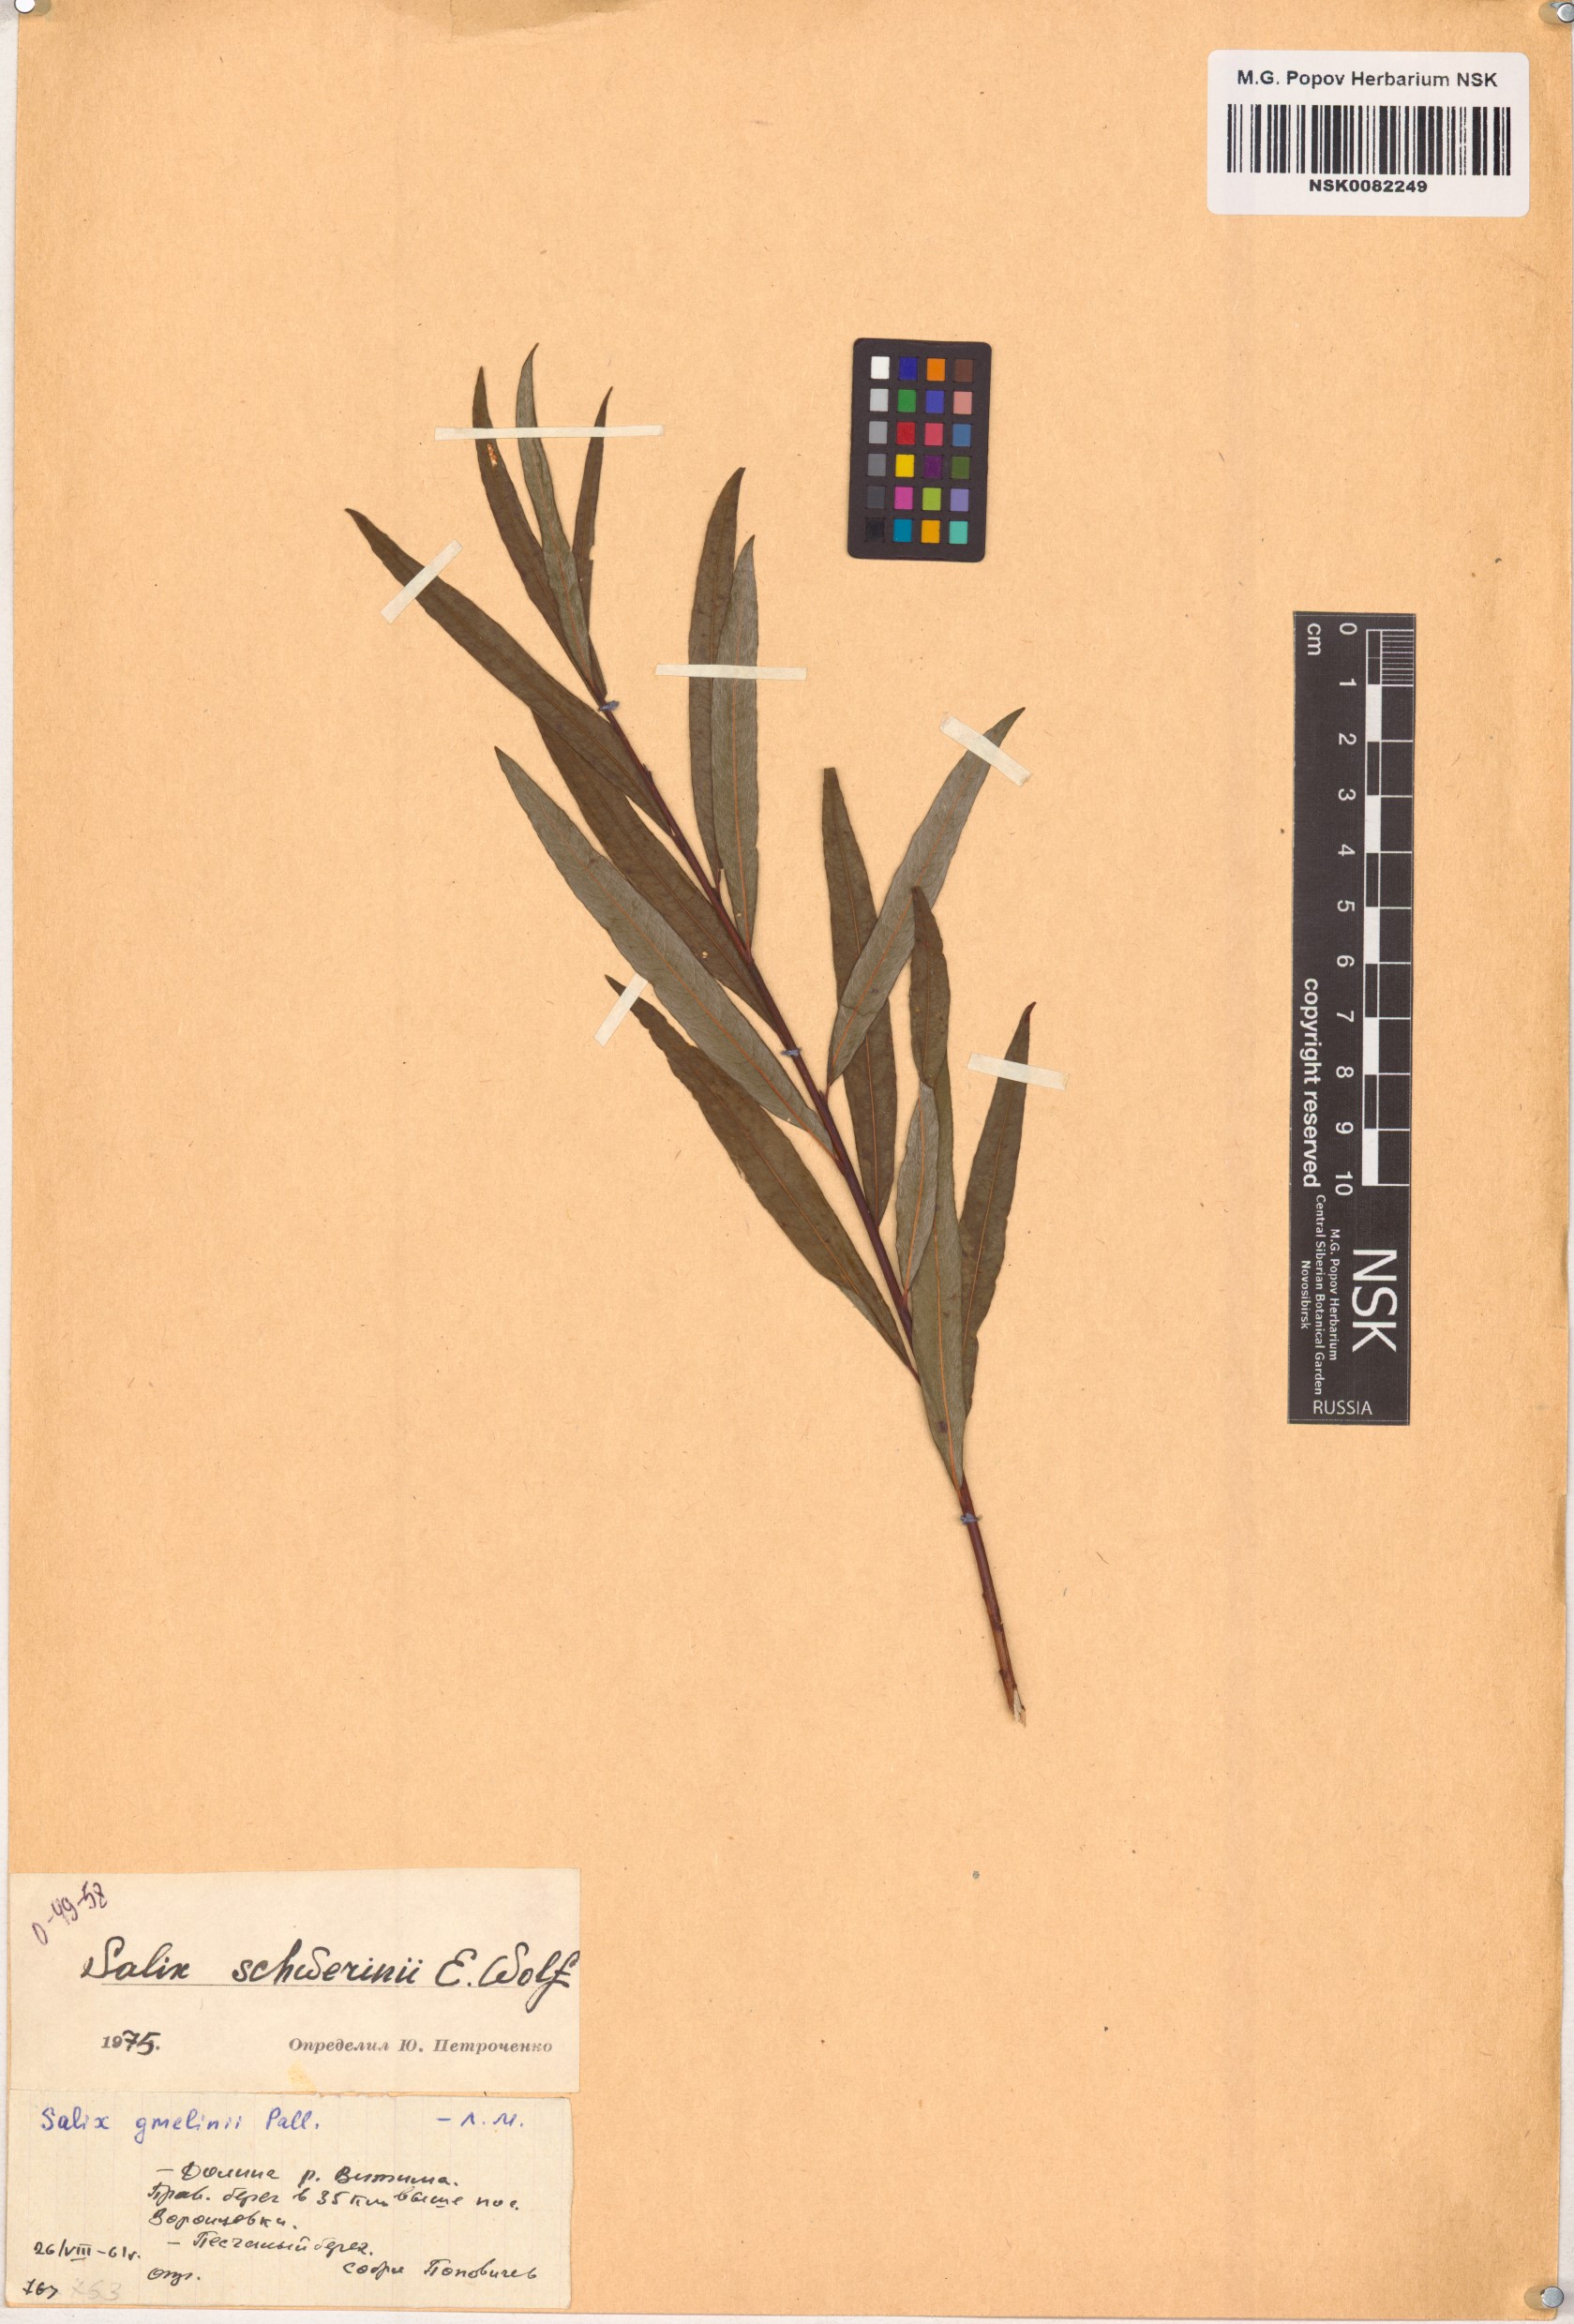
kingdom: Plantae
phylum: Tracheophyta
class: Magnoliopsida
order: Malpighiales
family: Salicaceae
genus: Salix
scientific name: Salix schwerinii
